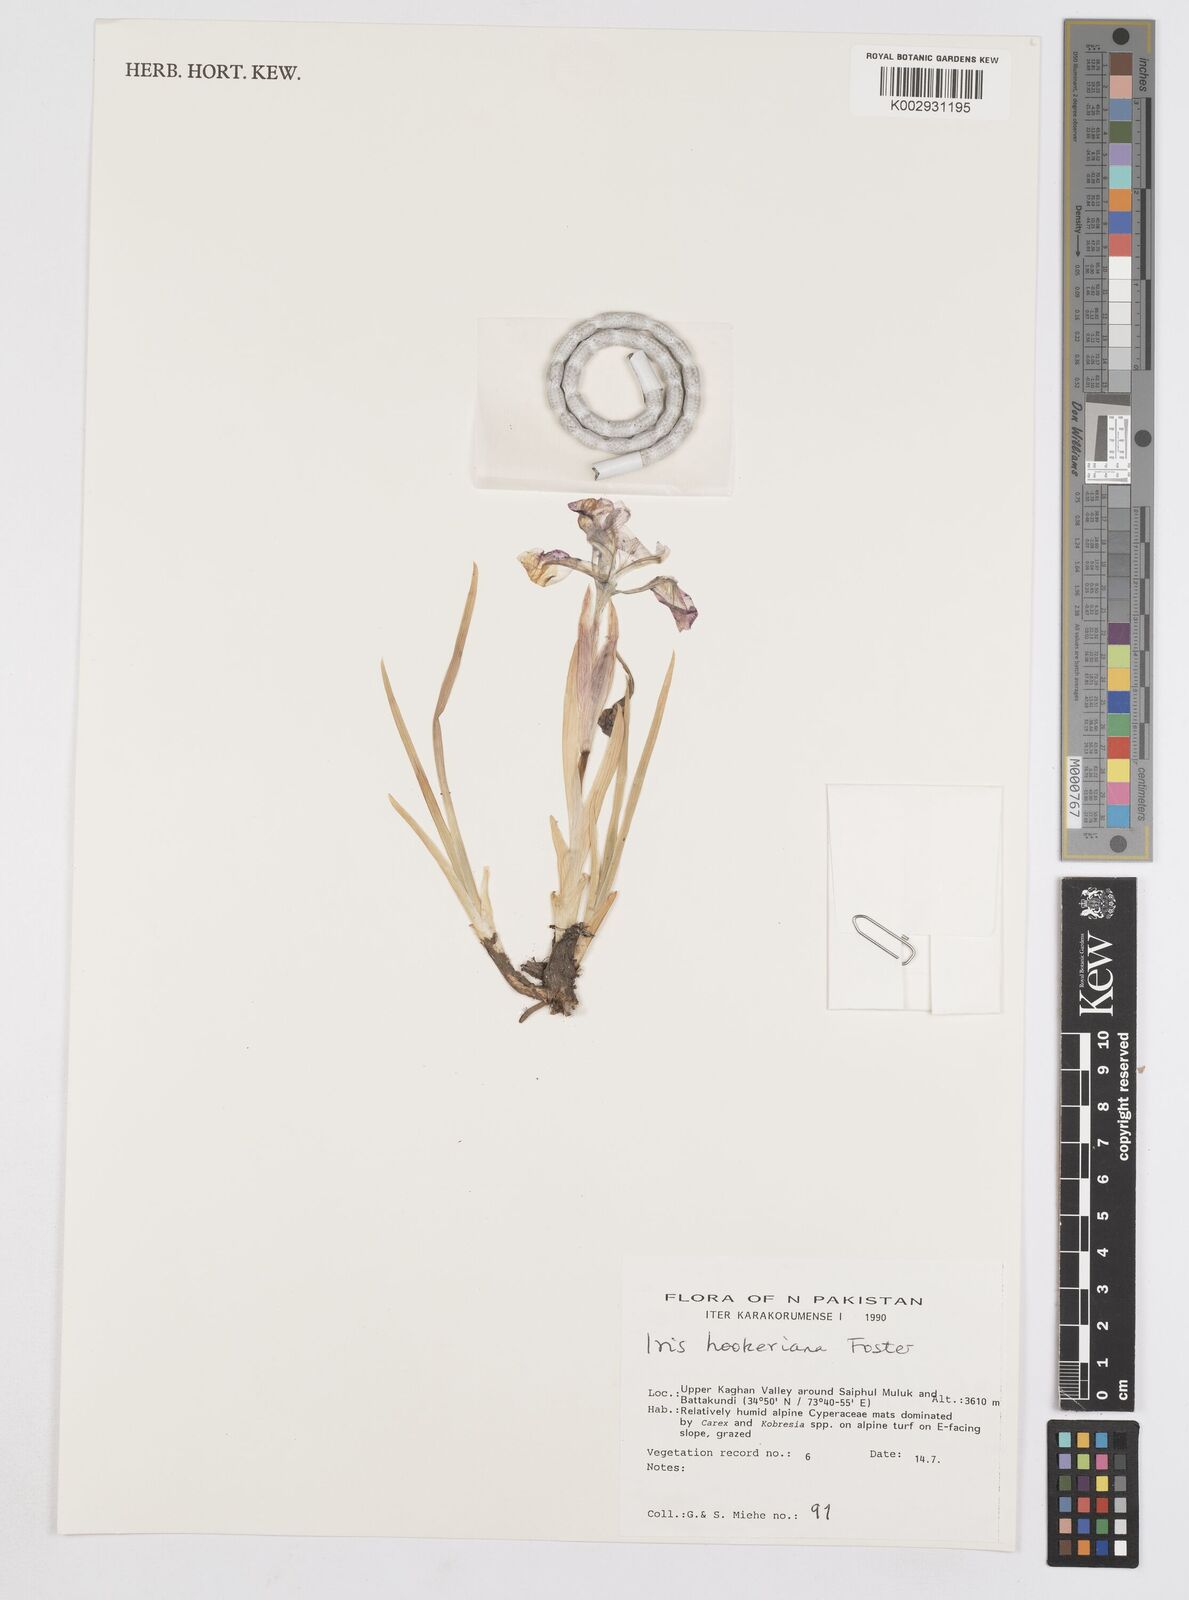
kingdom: Plantae
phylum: Tracheophyta
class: Liliopsida
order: Asparagales
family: Iridaceae
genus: Iris
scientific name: Iris hookeriana
